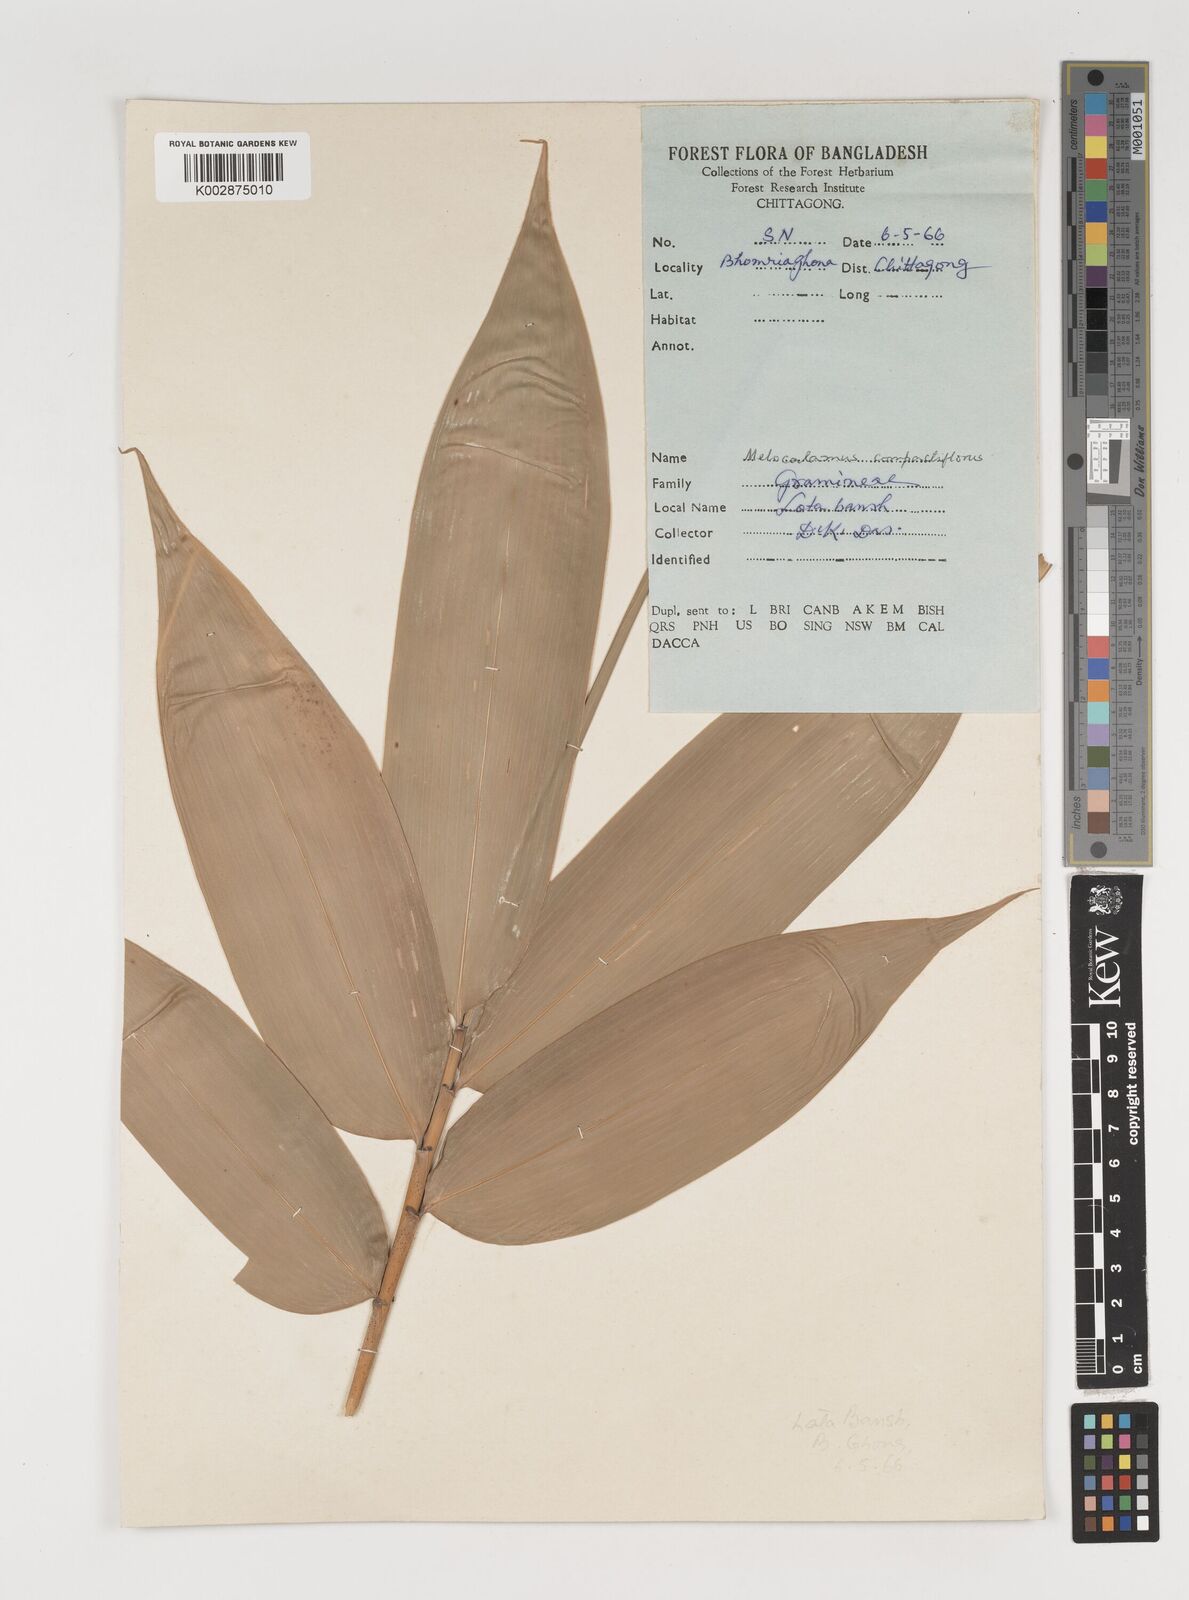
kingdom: Plantae
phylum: Tracheophyta
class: Liliopsida
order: Poales
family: Poaceae
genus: Melocalamus
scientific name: Melocalamus compactiflorus
